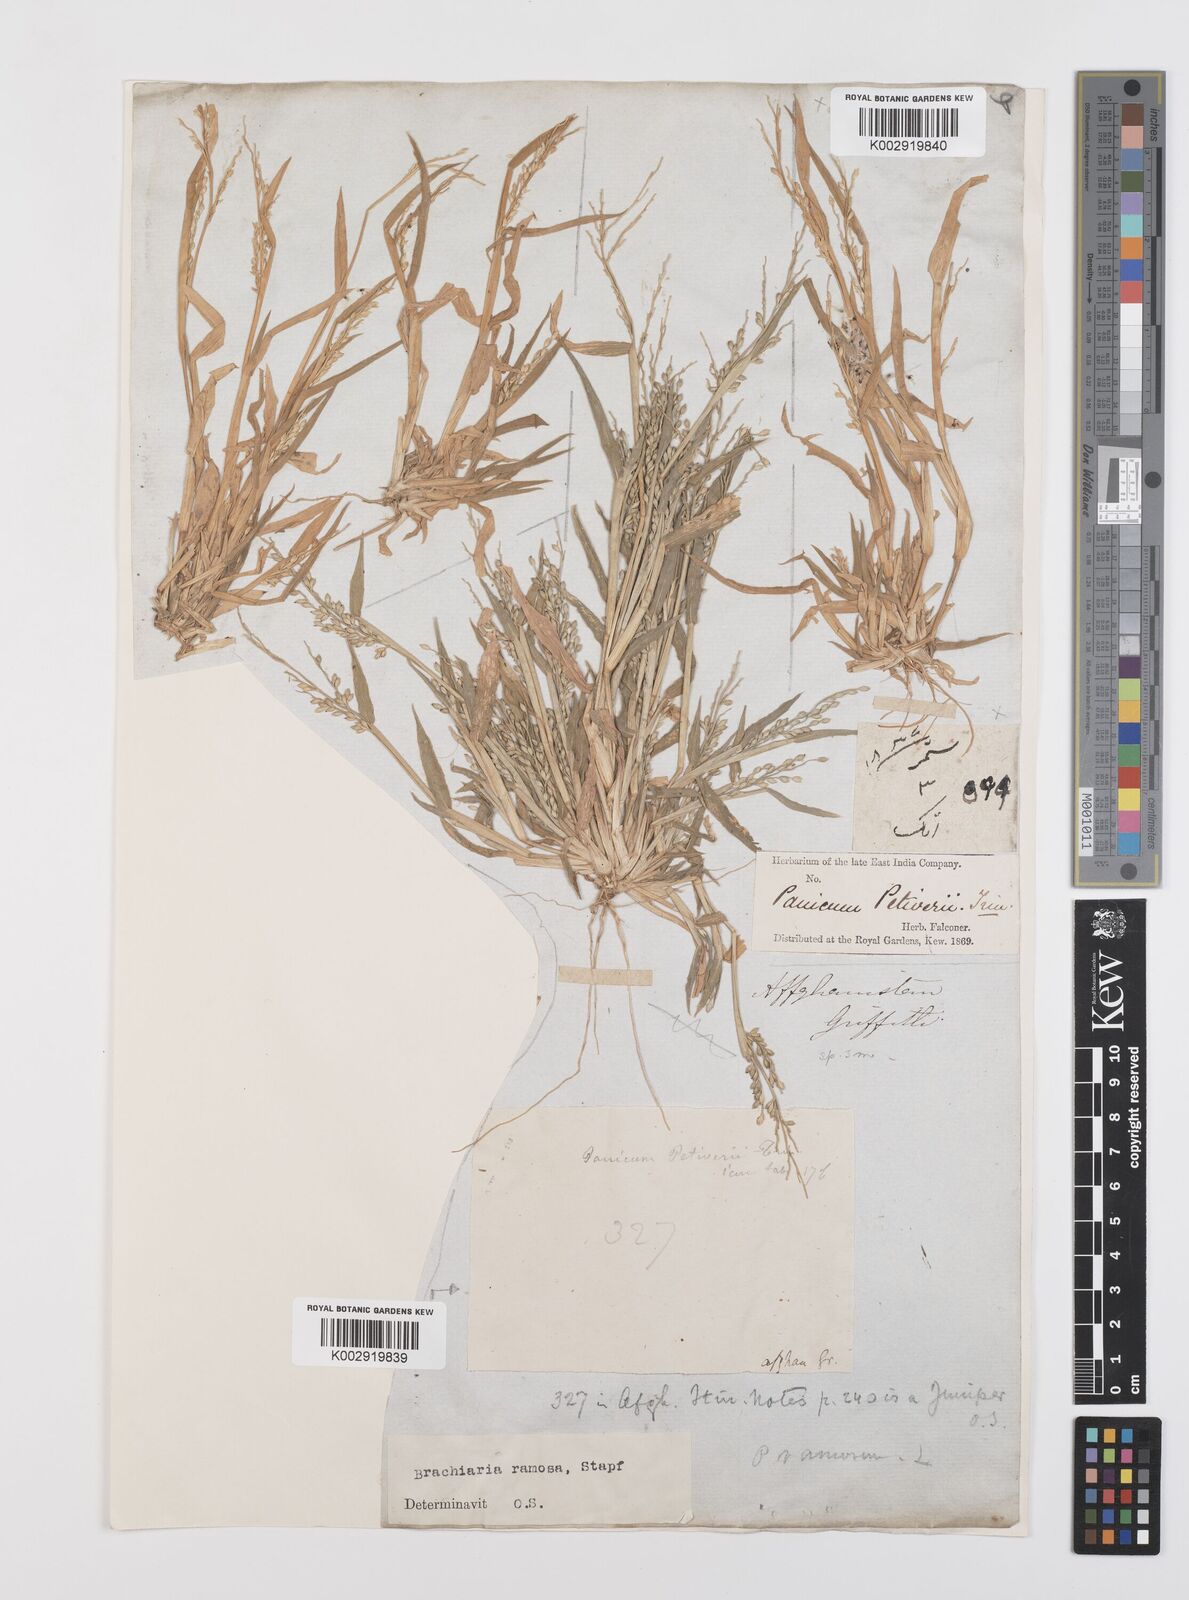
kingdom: Plantae
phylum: Tracheophyta
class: Liliopsida
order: Poales
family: Poaceae
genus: Urochloa
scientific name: Urochloa ramosa
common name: Browntop millet
